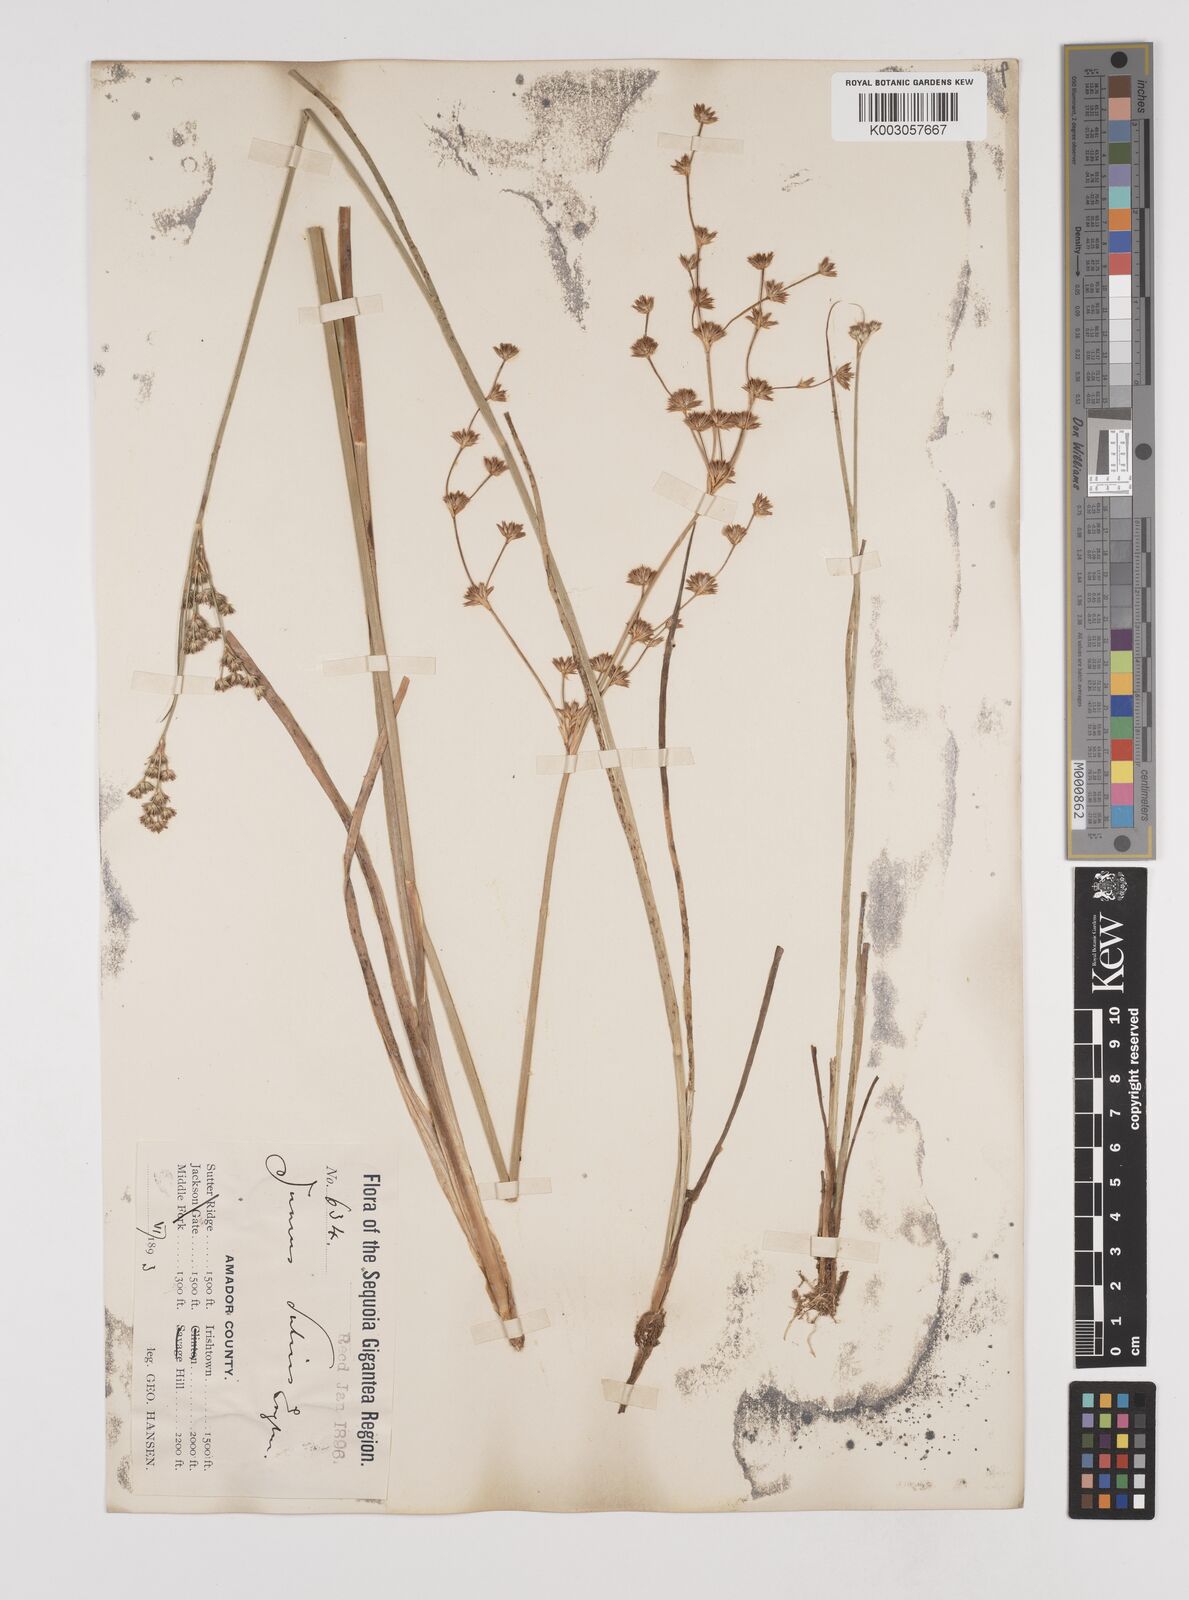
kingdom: Plantae
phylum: Tracheophyta
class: Liliopsida
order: Poales
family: Juncaceae
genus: Juncus
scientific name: Juncus dubius
